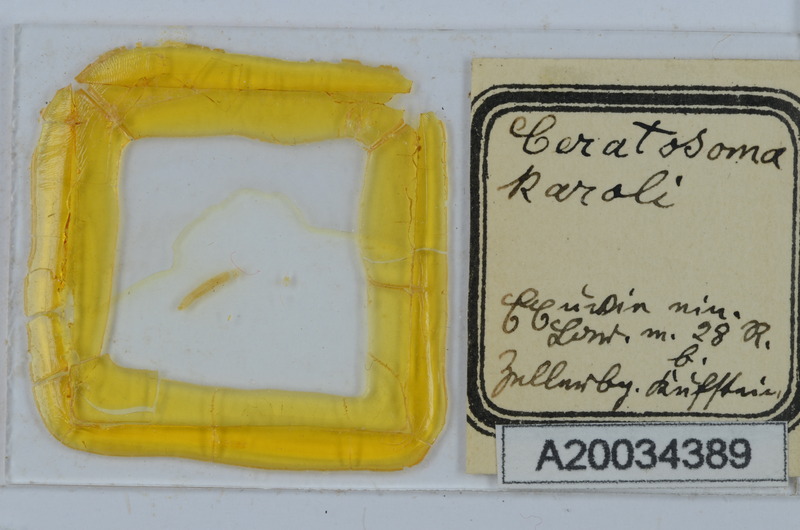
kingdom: Animalia
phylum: Arthropoda
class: Diplopoda
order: Chordeumatida
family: Craspedosomatidae
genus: Ochogona
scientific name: Ochogona caroli
